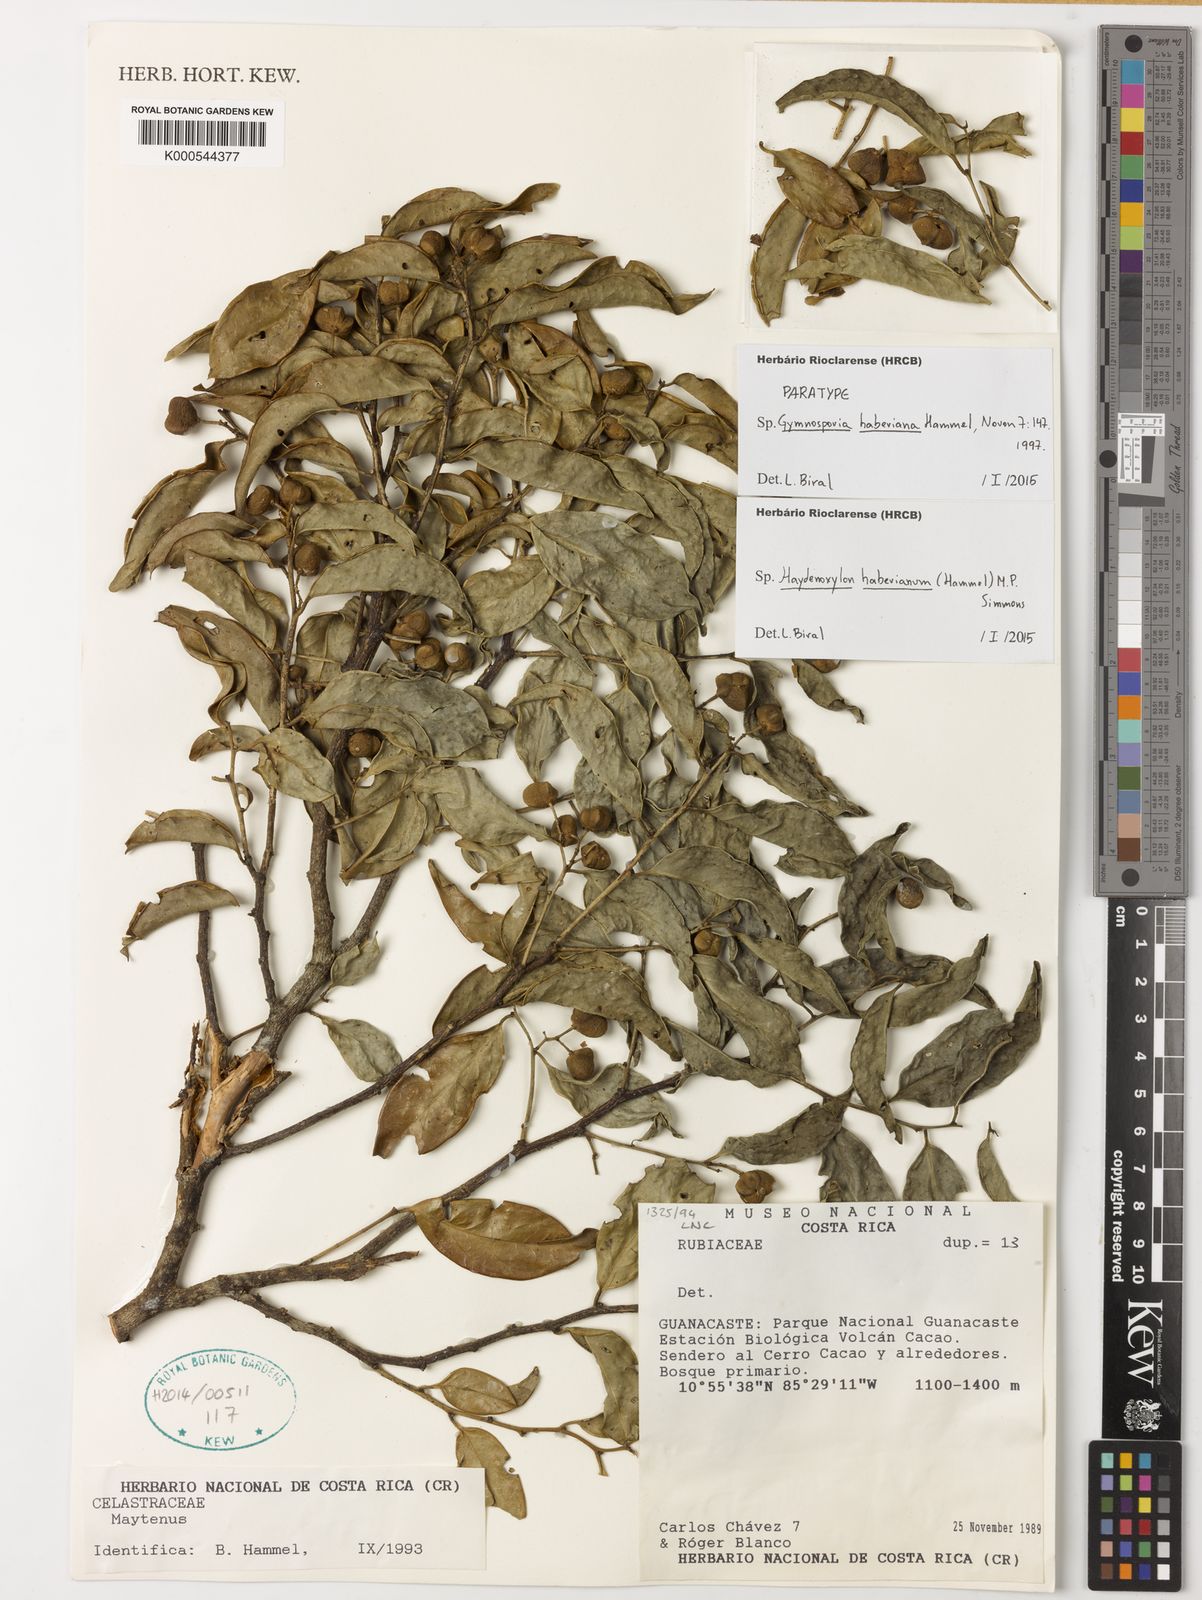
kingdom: Plantae
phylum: Tracheophyta
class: Magnoliopsida
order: Celastrales
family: Celastraceae
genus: Maytenus
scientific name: Maytenus
